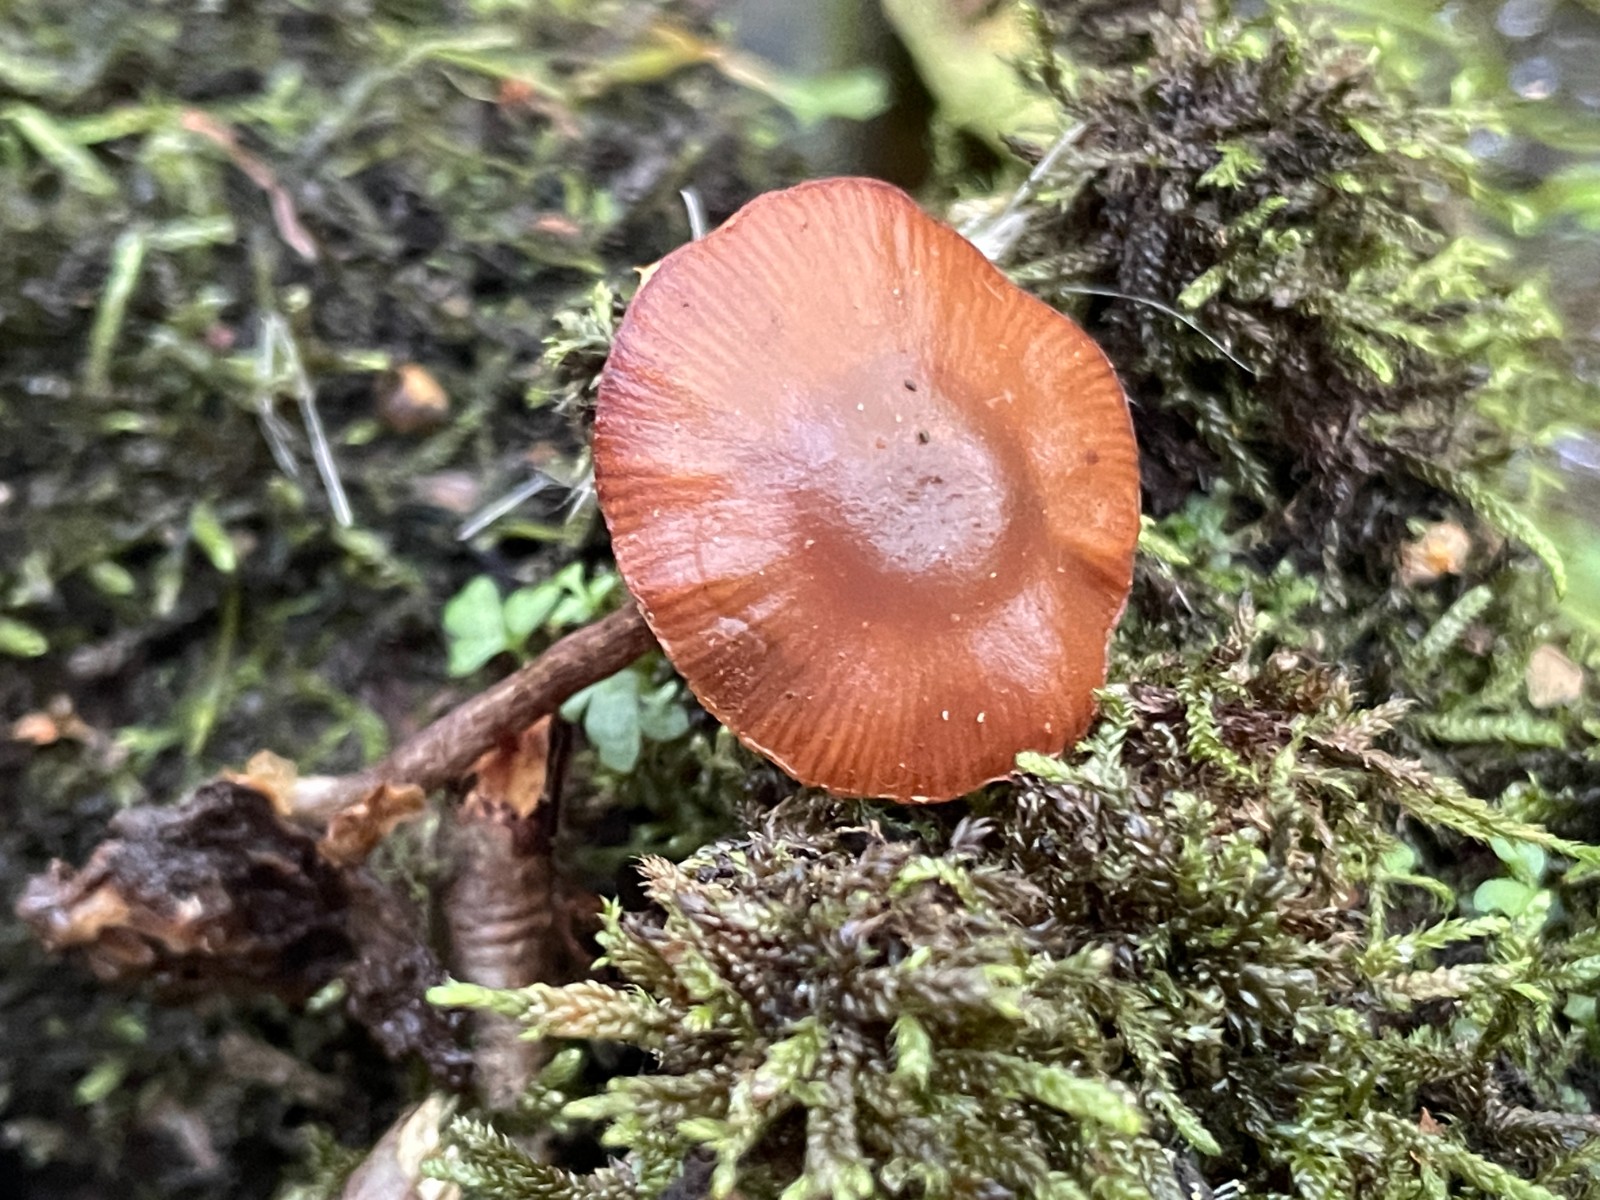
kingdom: Fungi
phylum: Basidiomycota
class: Agaricomycetes
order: Agaricales
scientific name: Agaricales
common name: champignonordenen
